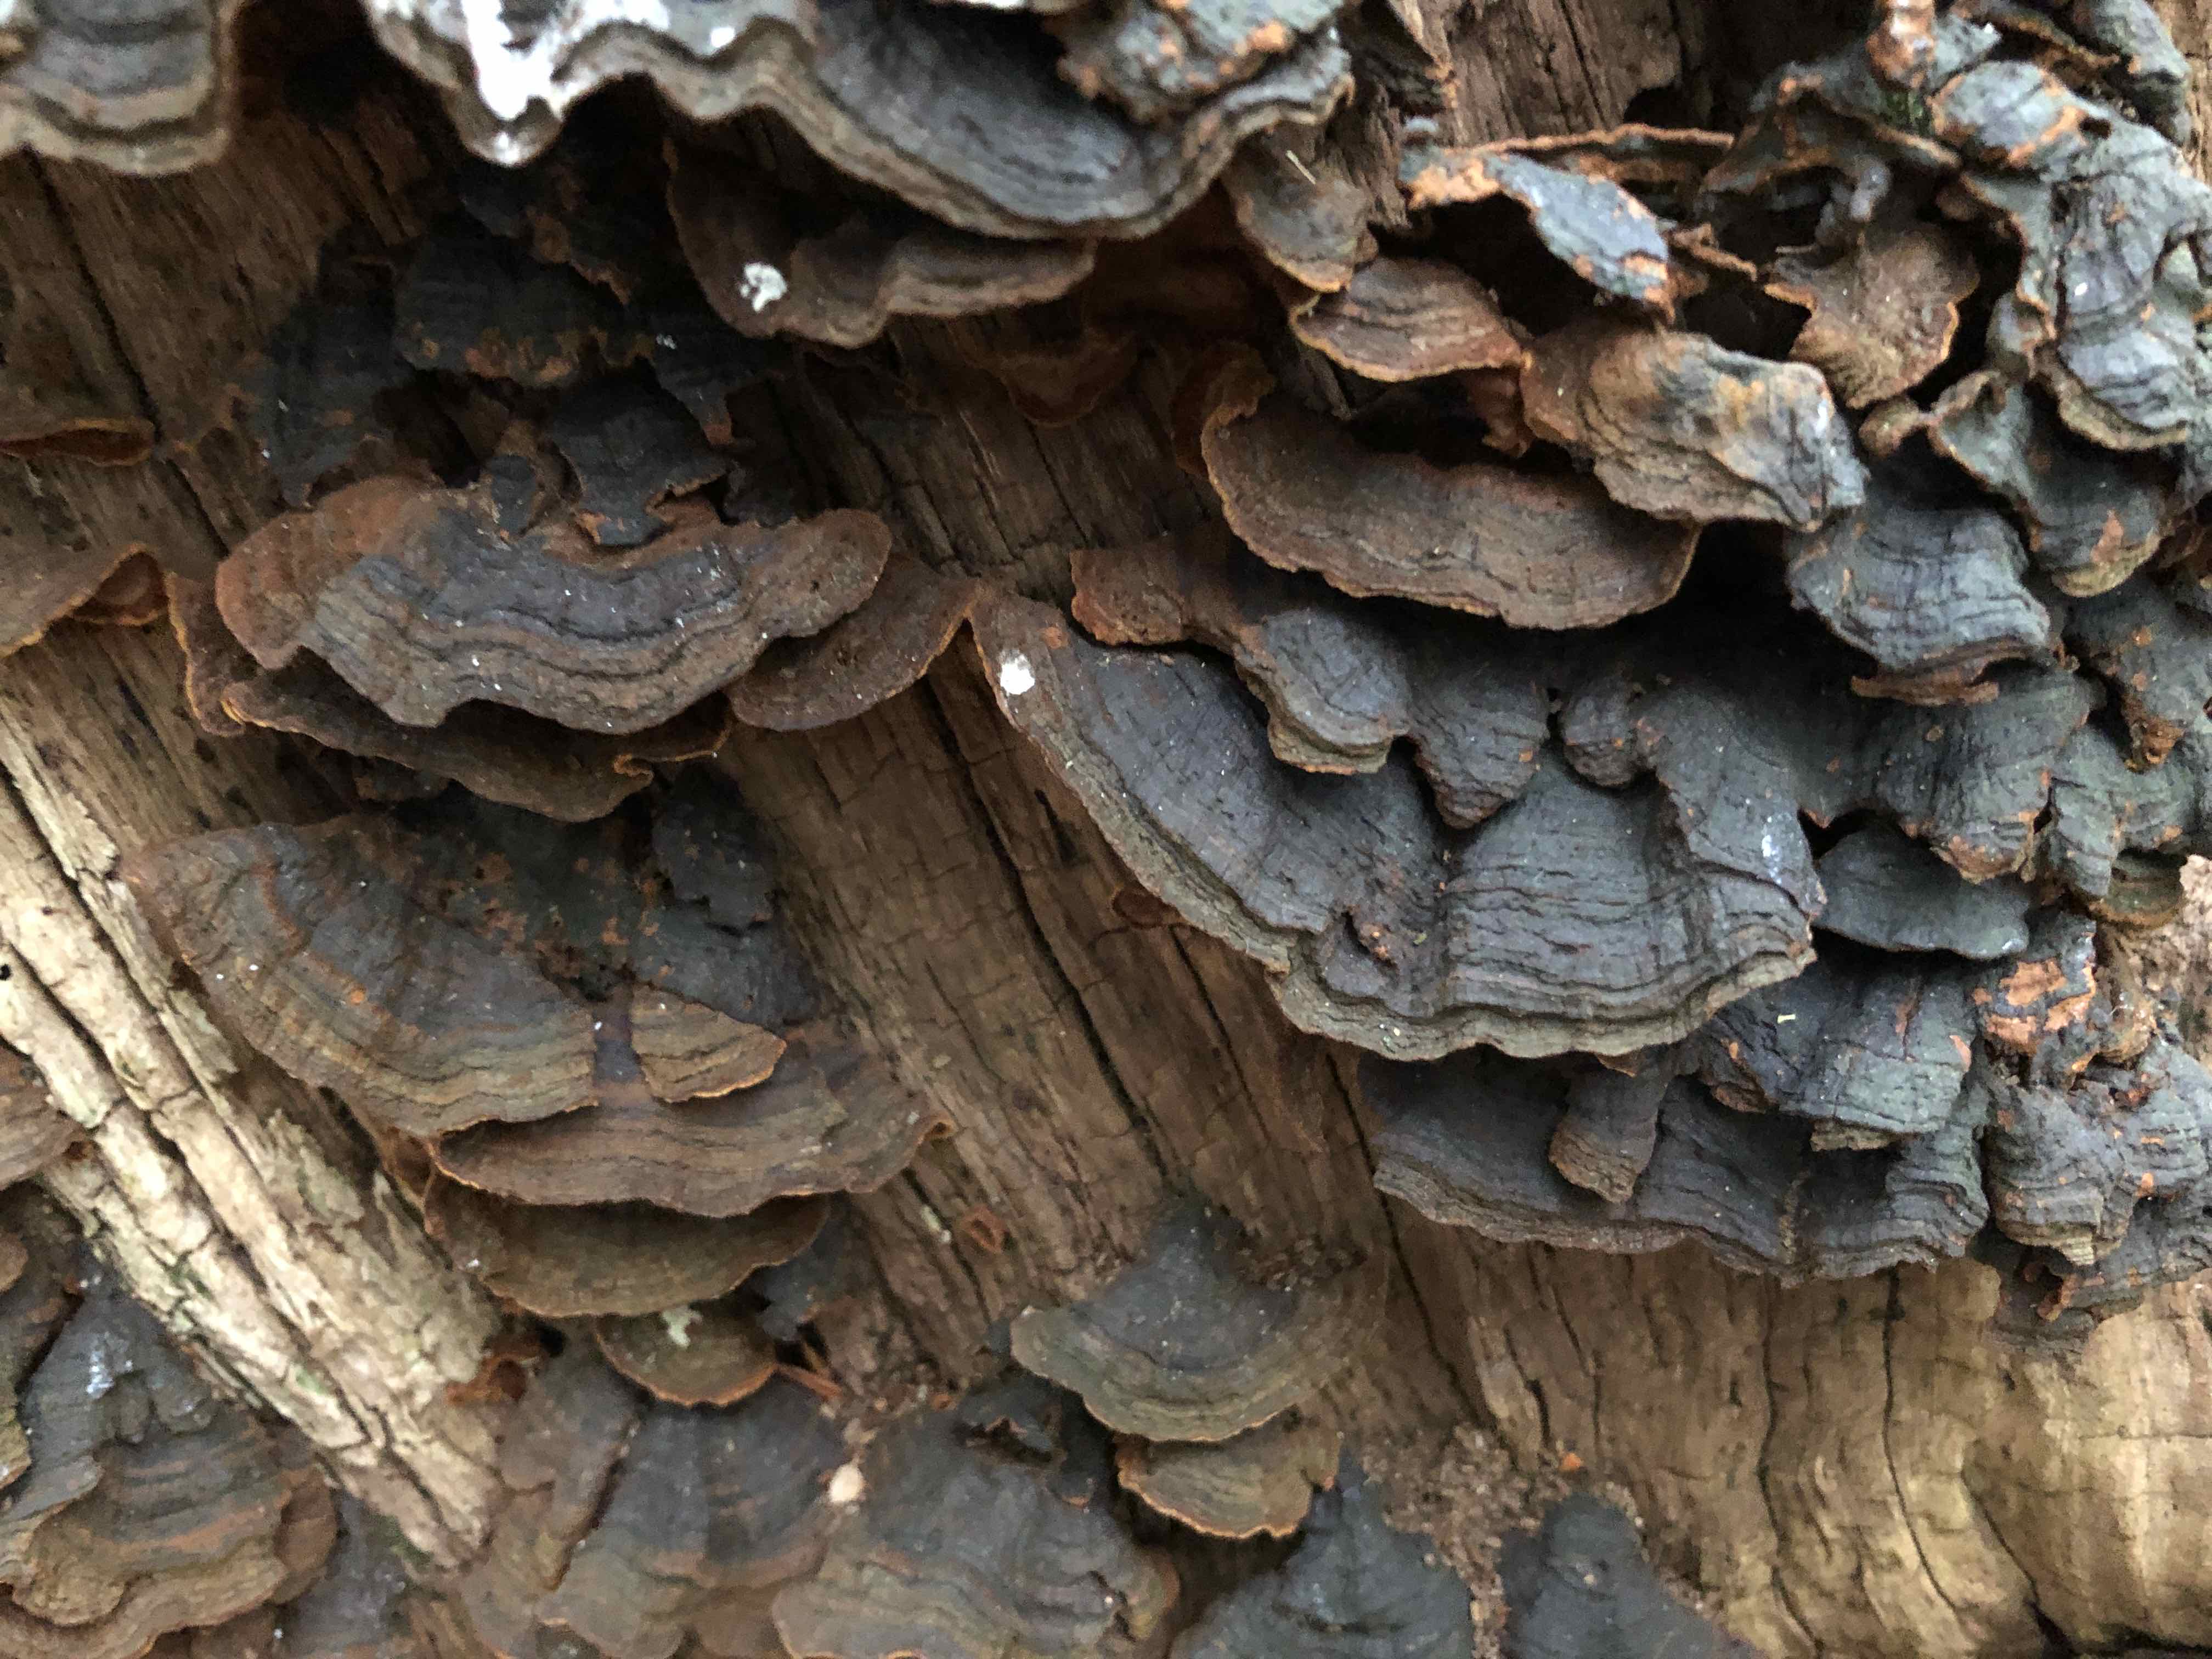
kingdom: Fungi
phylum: Basidiomycota
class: Agaricomycetes
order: Hymenochaetales
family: Hymenochaetaceae
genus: Hymenochaete
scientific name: Hymenochaete rubiginosa
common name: stiv ruslædersvamp
